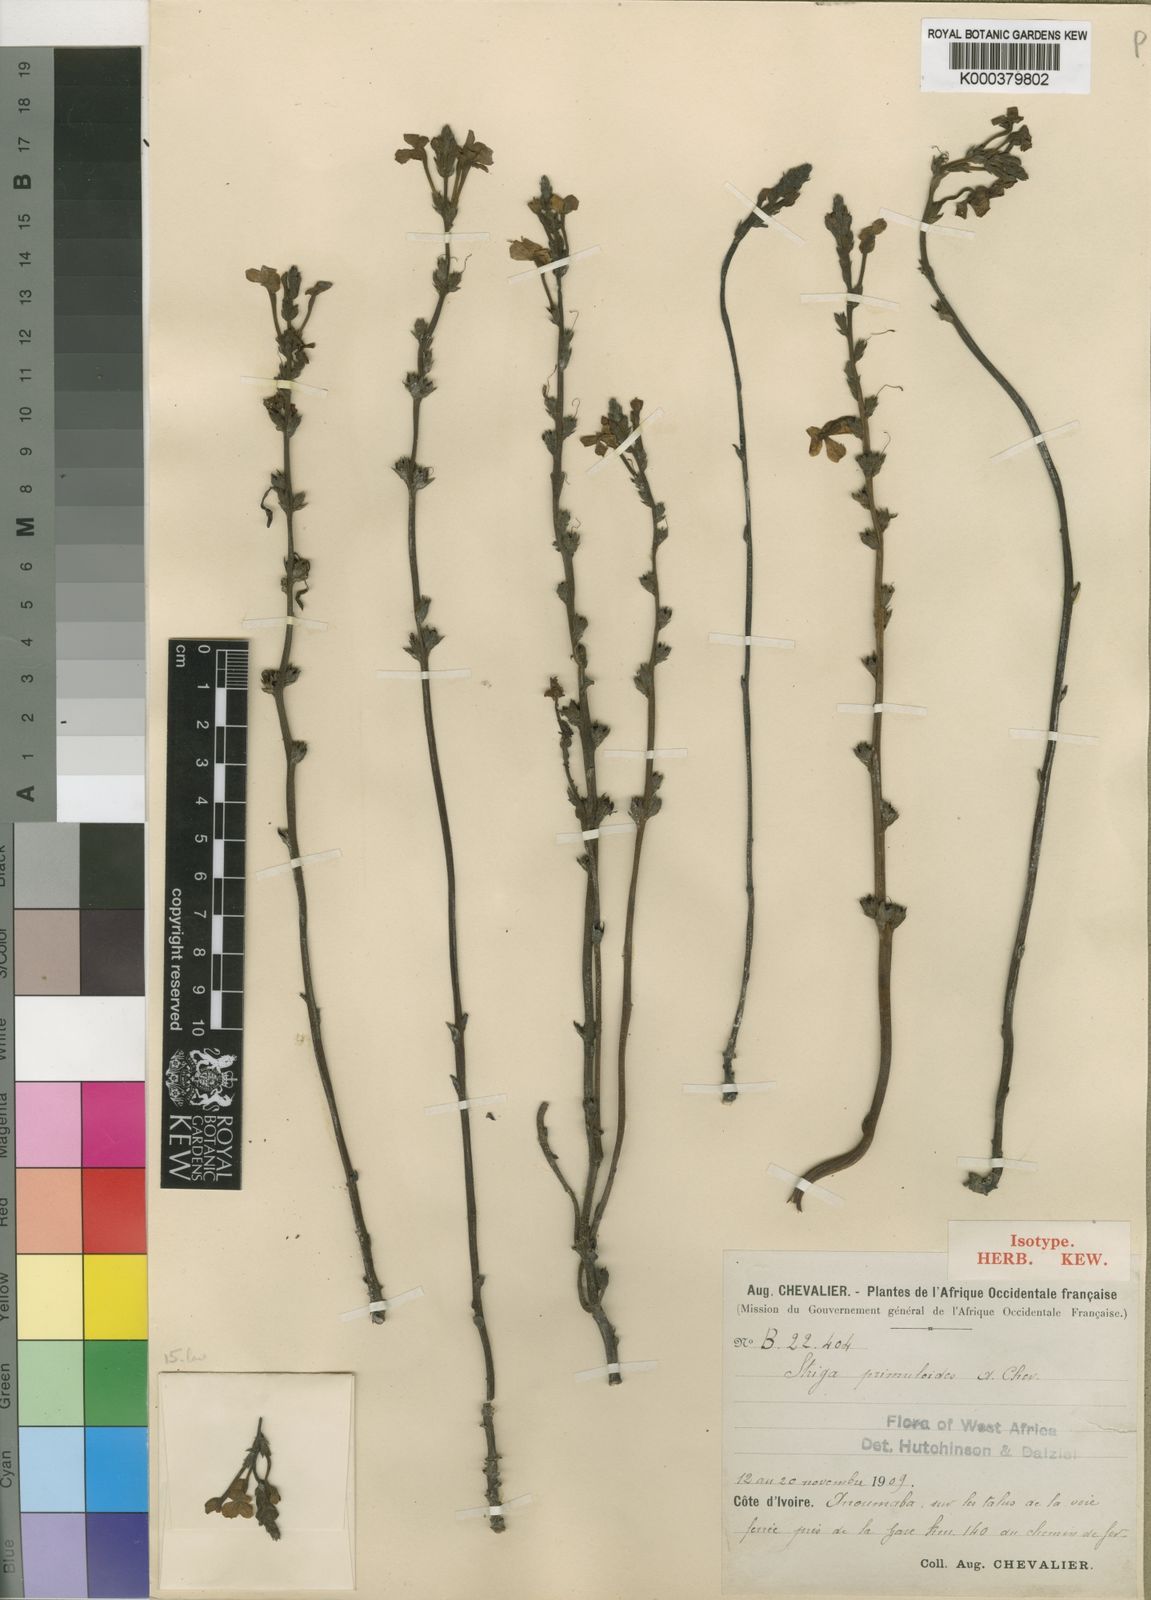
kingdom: Plantae
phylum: Tracheophyta
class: Magnoliopsida
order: Lamiales
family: Orobanchaceae
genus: Striga
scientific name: Striga primuloides
